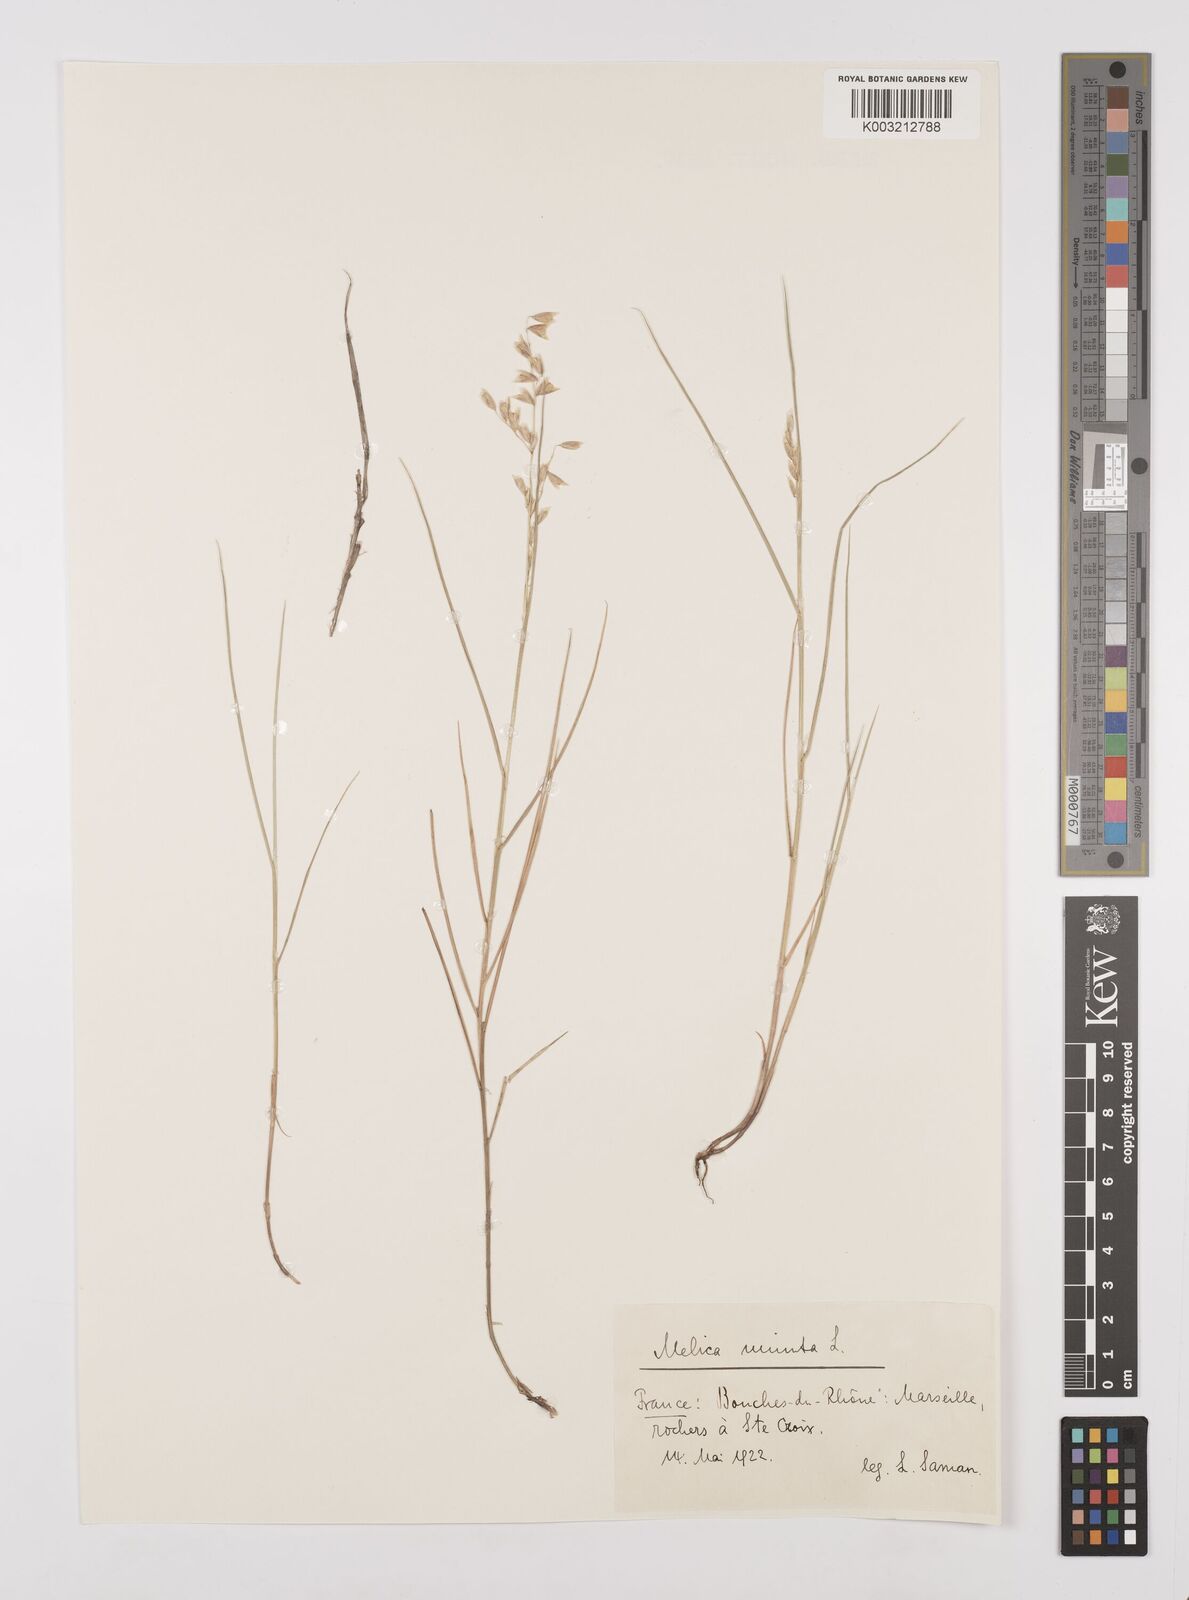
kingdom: Plantae
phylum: Tracheophyta
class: Liliopsida
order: Poales
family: Poaceae
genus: Melica
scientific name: Melica minuta
